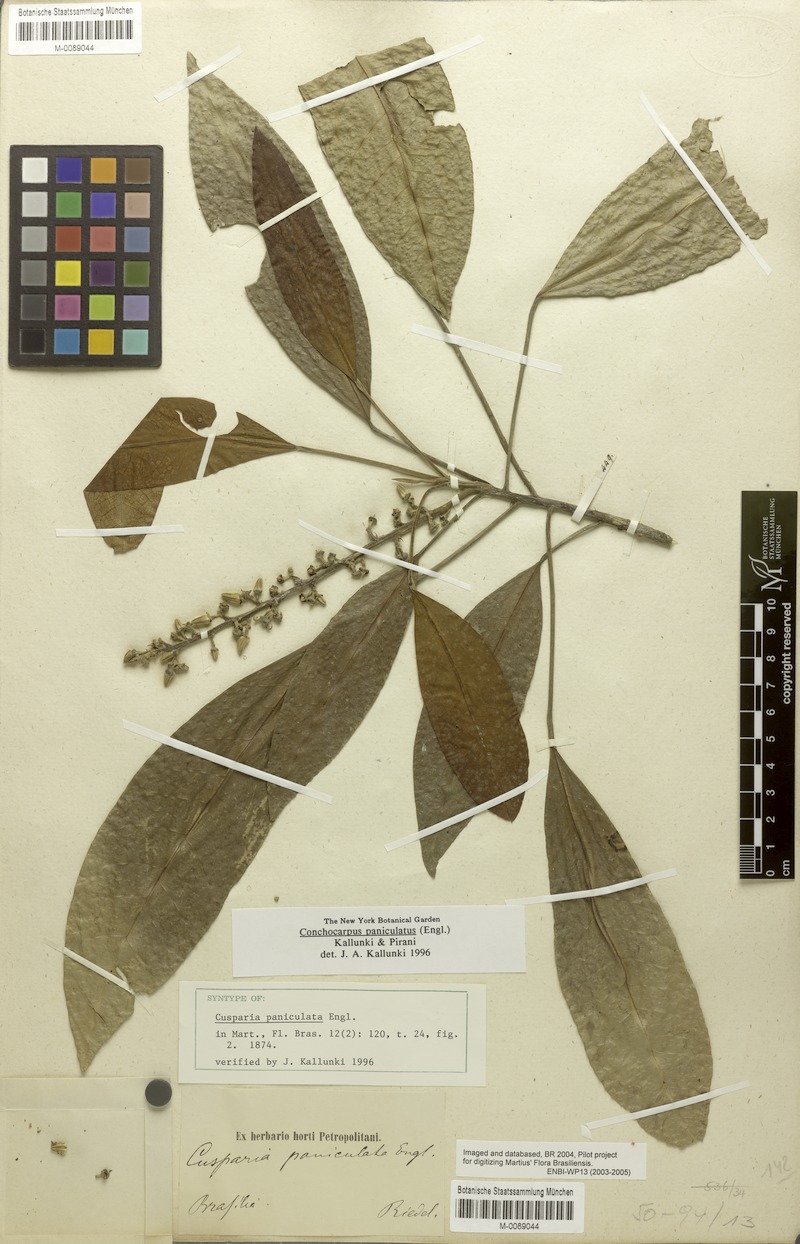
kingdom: Plantae
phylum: Tracheophyta
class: Magnoliopsida
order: Sapindales
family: Rutaceae
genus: Conchocarpus
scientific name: Conchocarpus paniculatus
